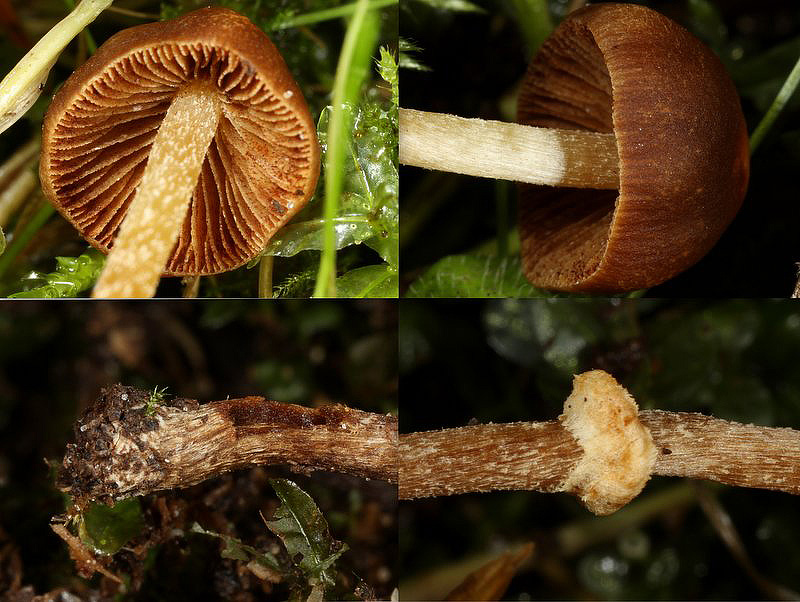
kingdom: Fungi
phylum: Basidiomycota
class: Agaricomycetes
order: Agaricales
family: Bolbitiaceae
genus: Pholiotina
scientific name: Pholiotina teneroides
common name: tosporet dansehat
